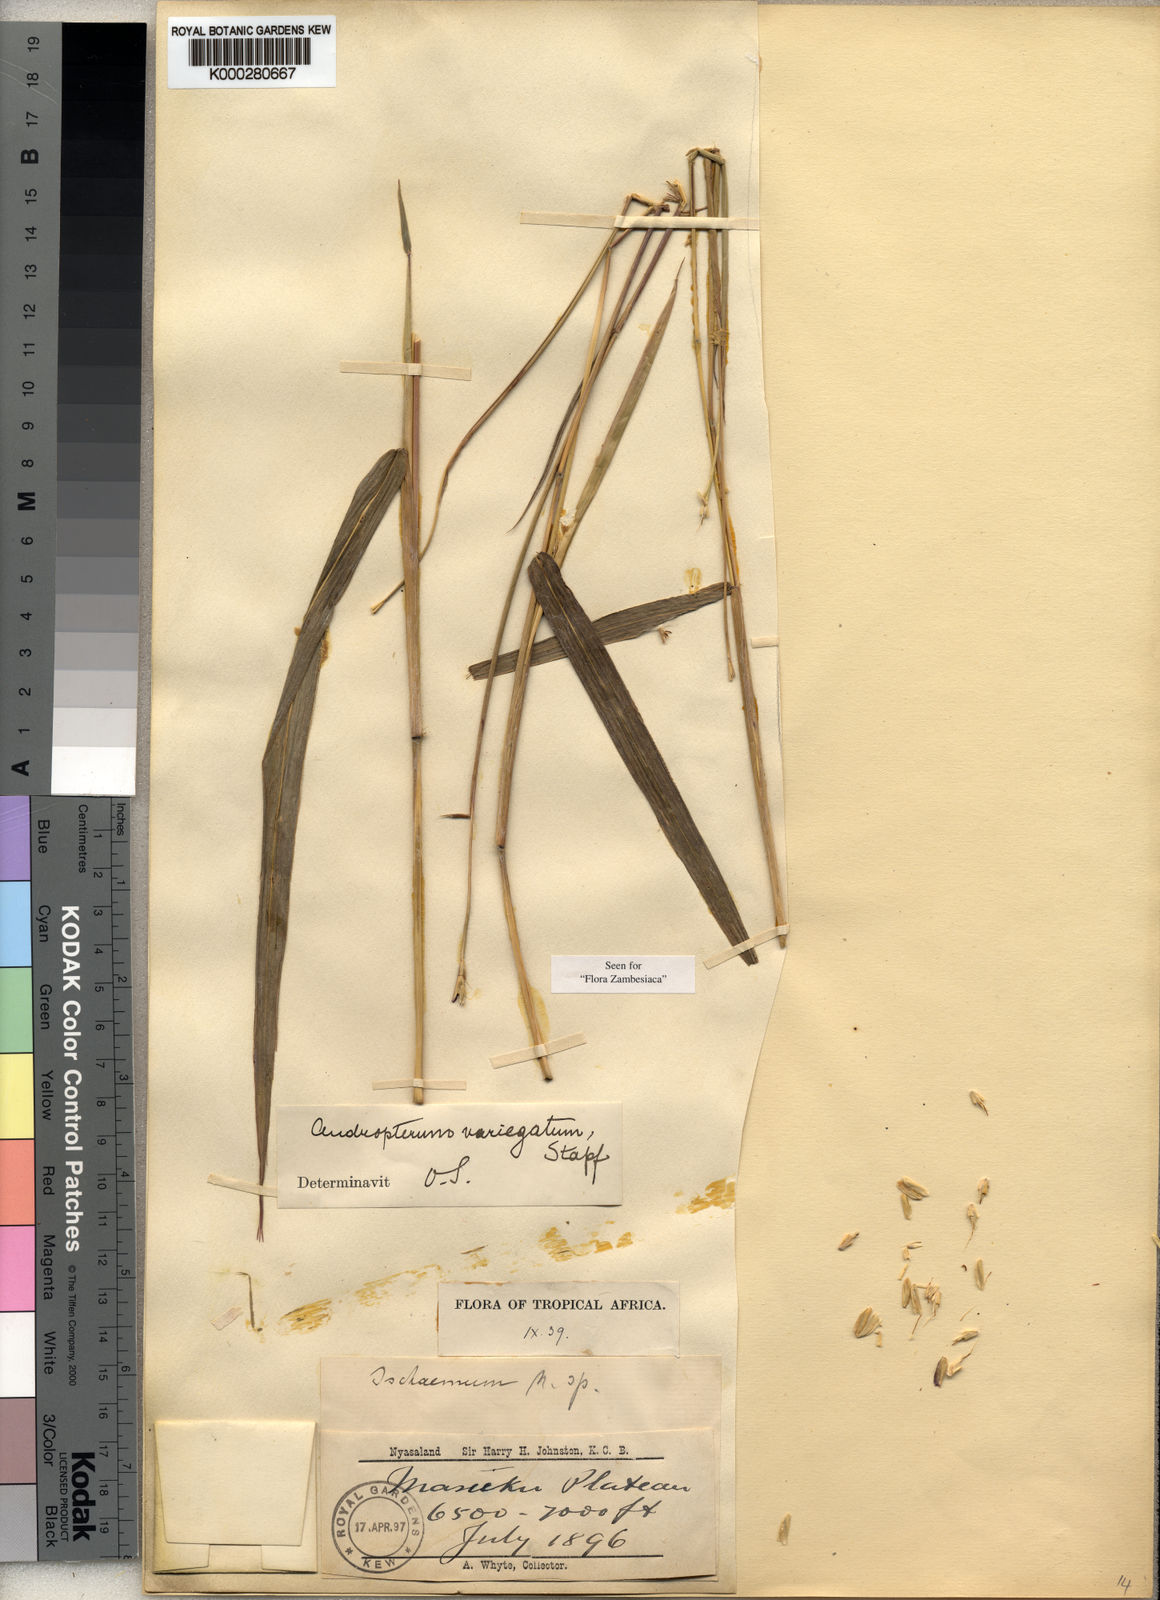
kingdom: Plantae
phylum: Tracheophyta
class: Liliopsida
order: Poales
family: Poaceae
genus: Andropterum
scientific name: Andropterum stolzii
